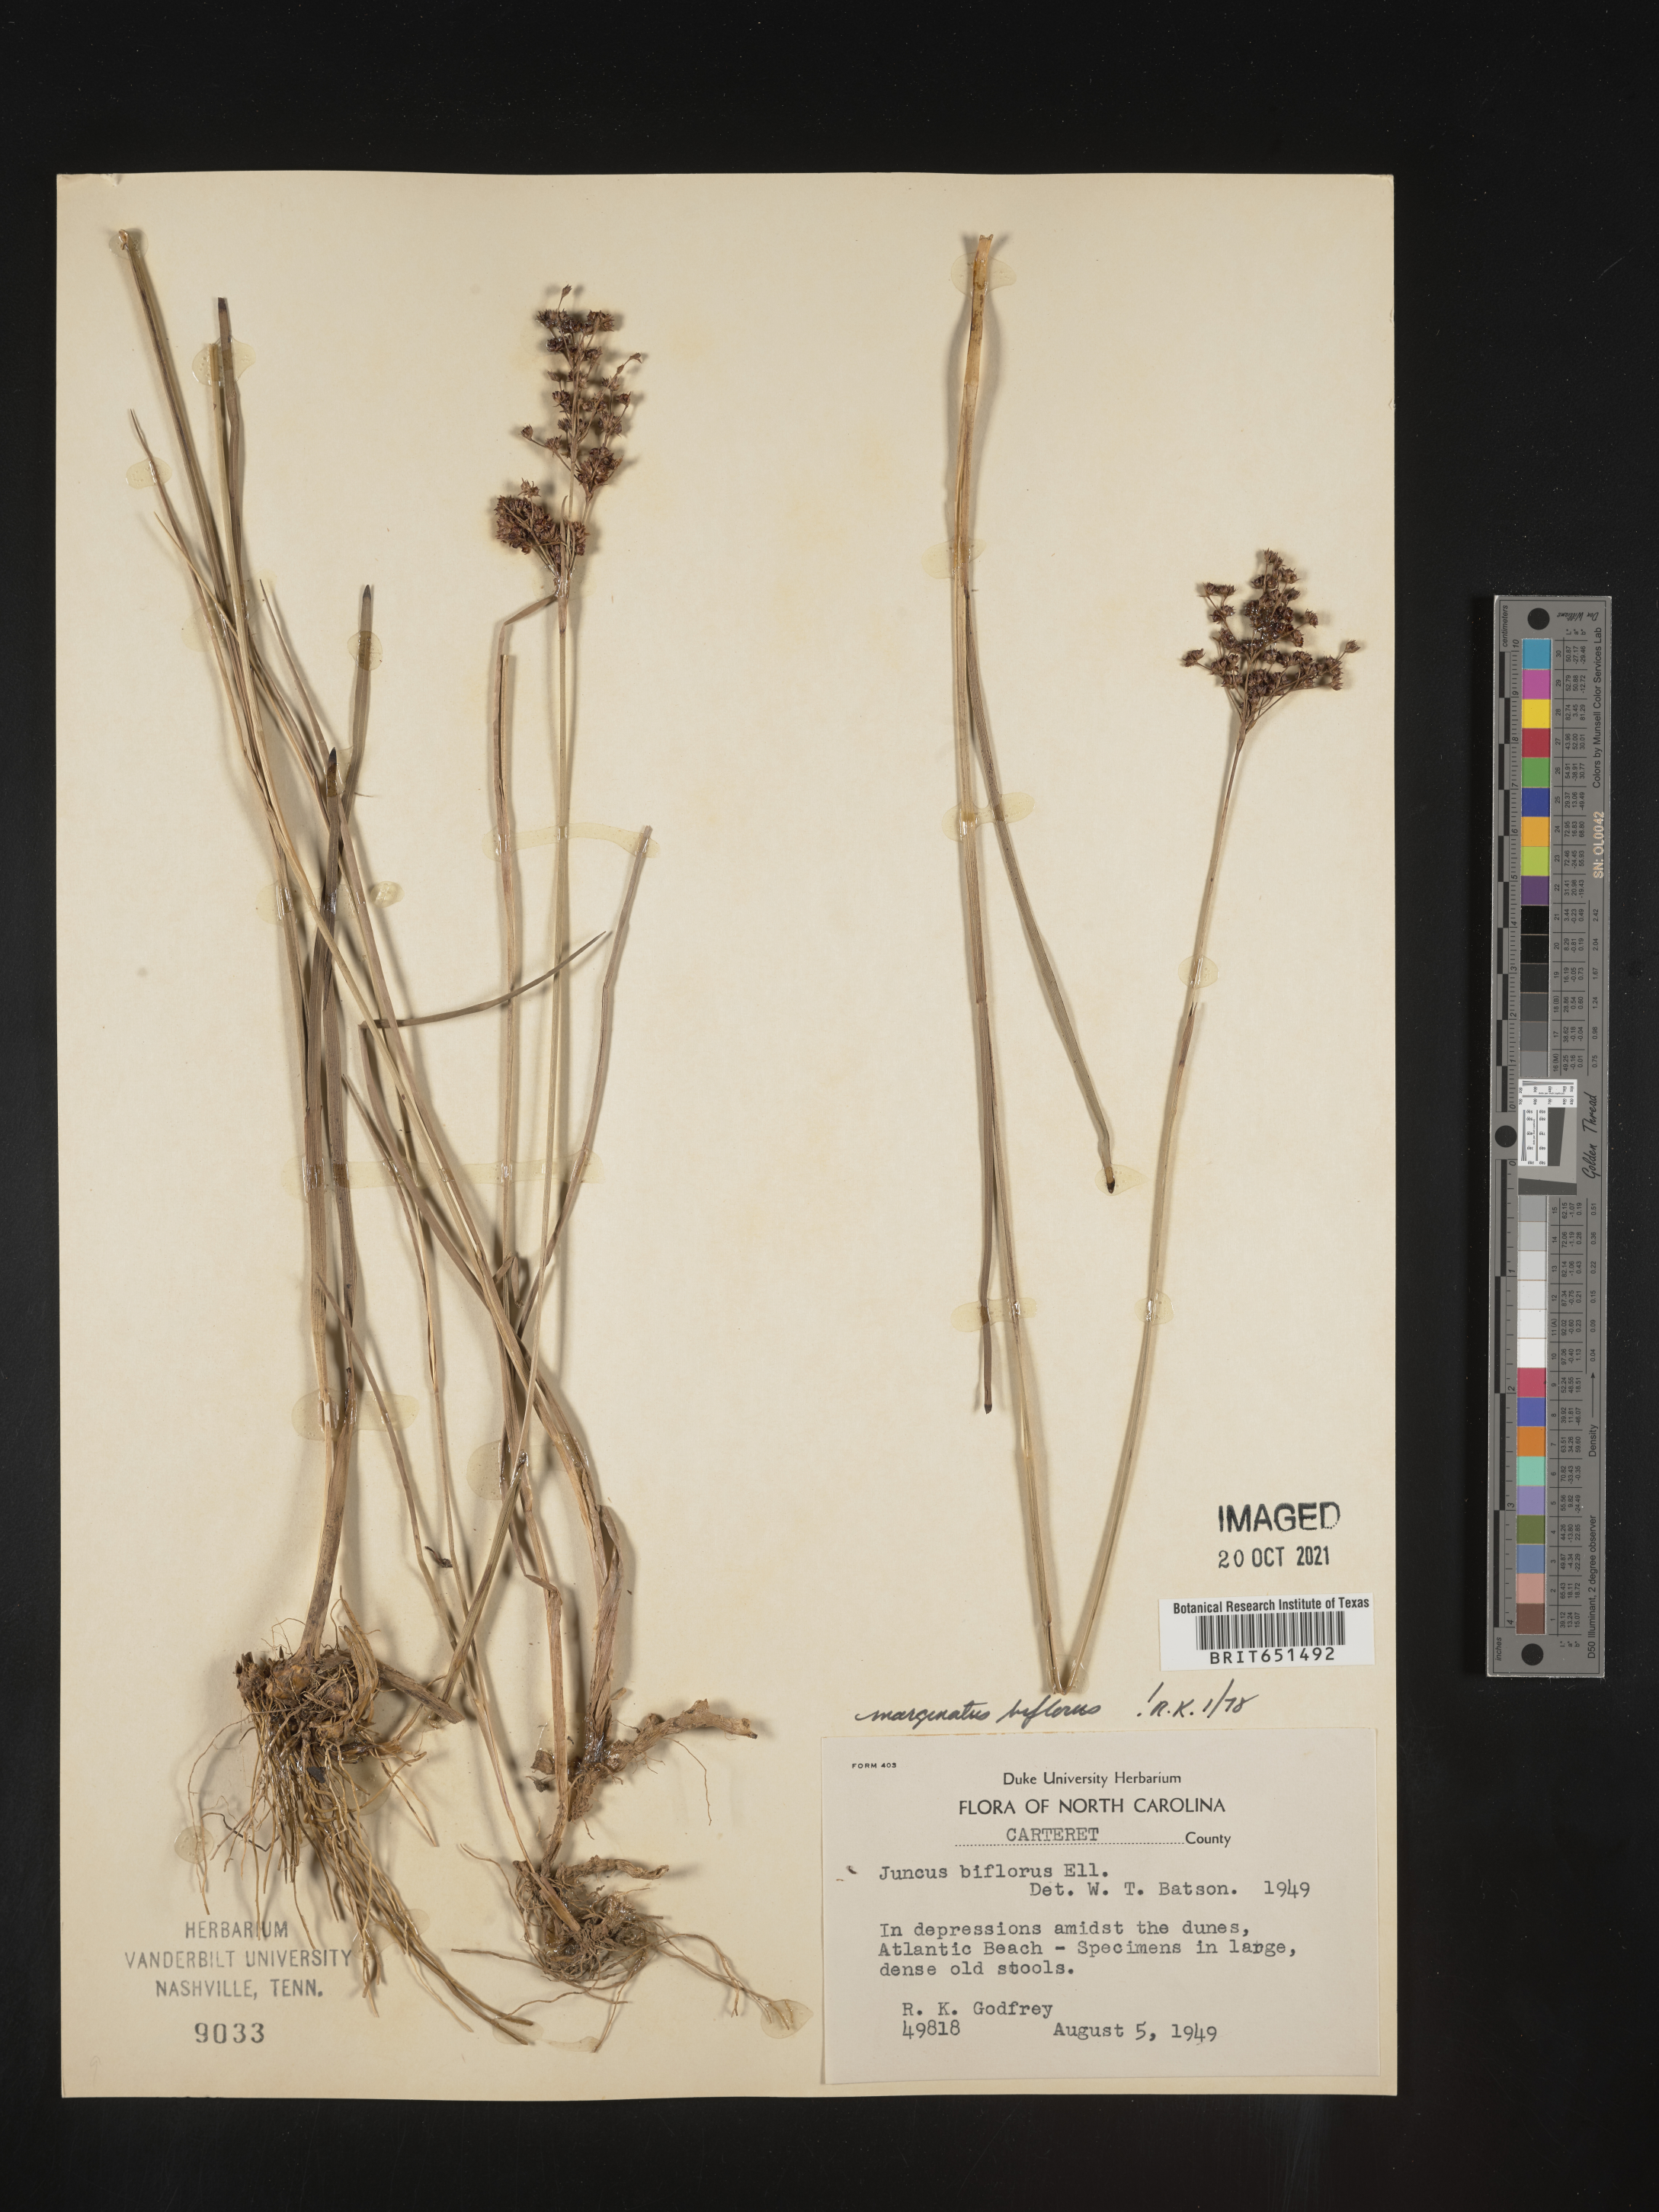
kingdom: Plantae
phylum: Tracheophyta
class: Liliopsida
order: Poales
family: Juncaceae
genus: Juncus
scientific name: Juncus biflorus
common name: Two-flowered rush
